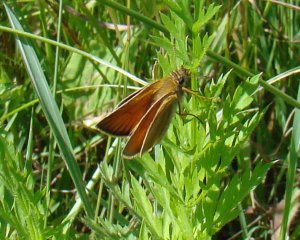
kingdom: Animalia
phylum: Arthropoda
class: Insecta
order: Lepidoptera
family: Hesperiidae
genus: Thymelicus
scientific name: Thymelicus lineola
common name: European Skipper
